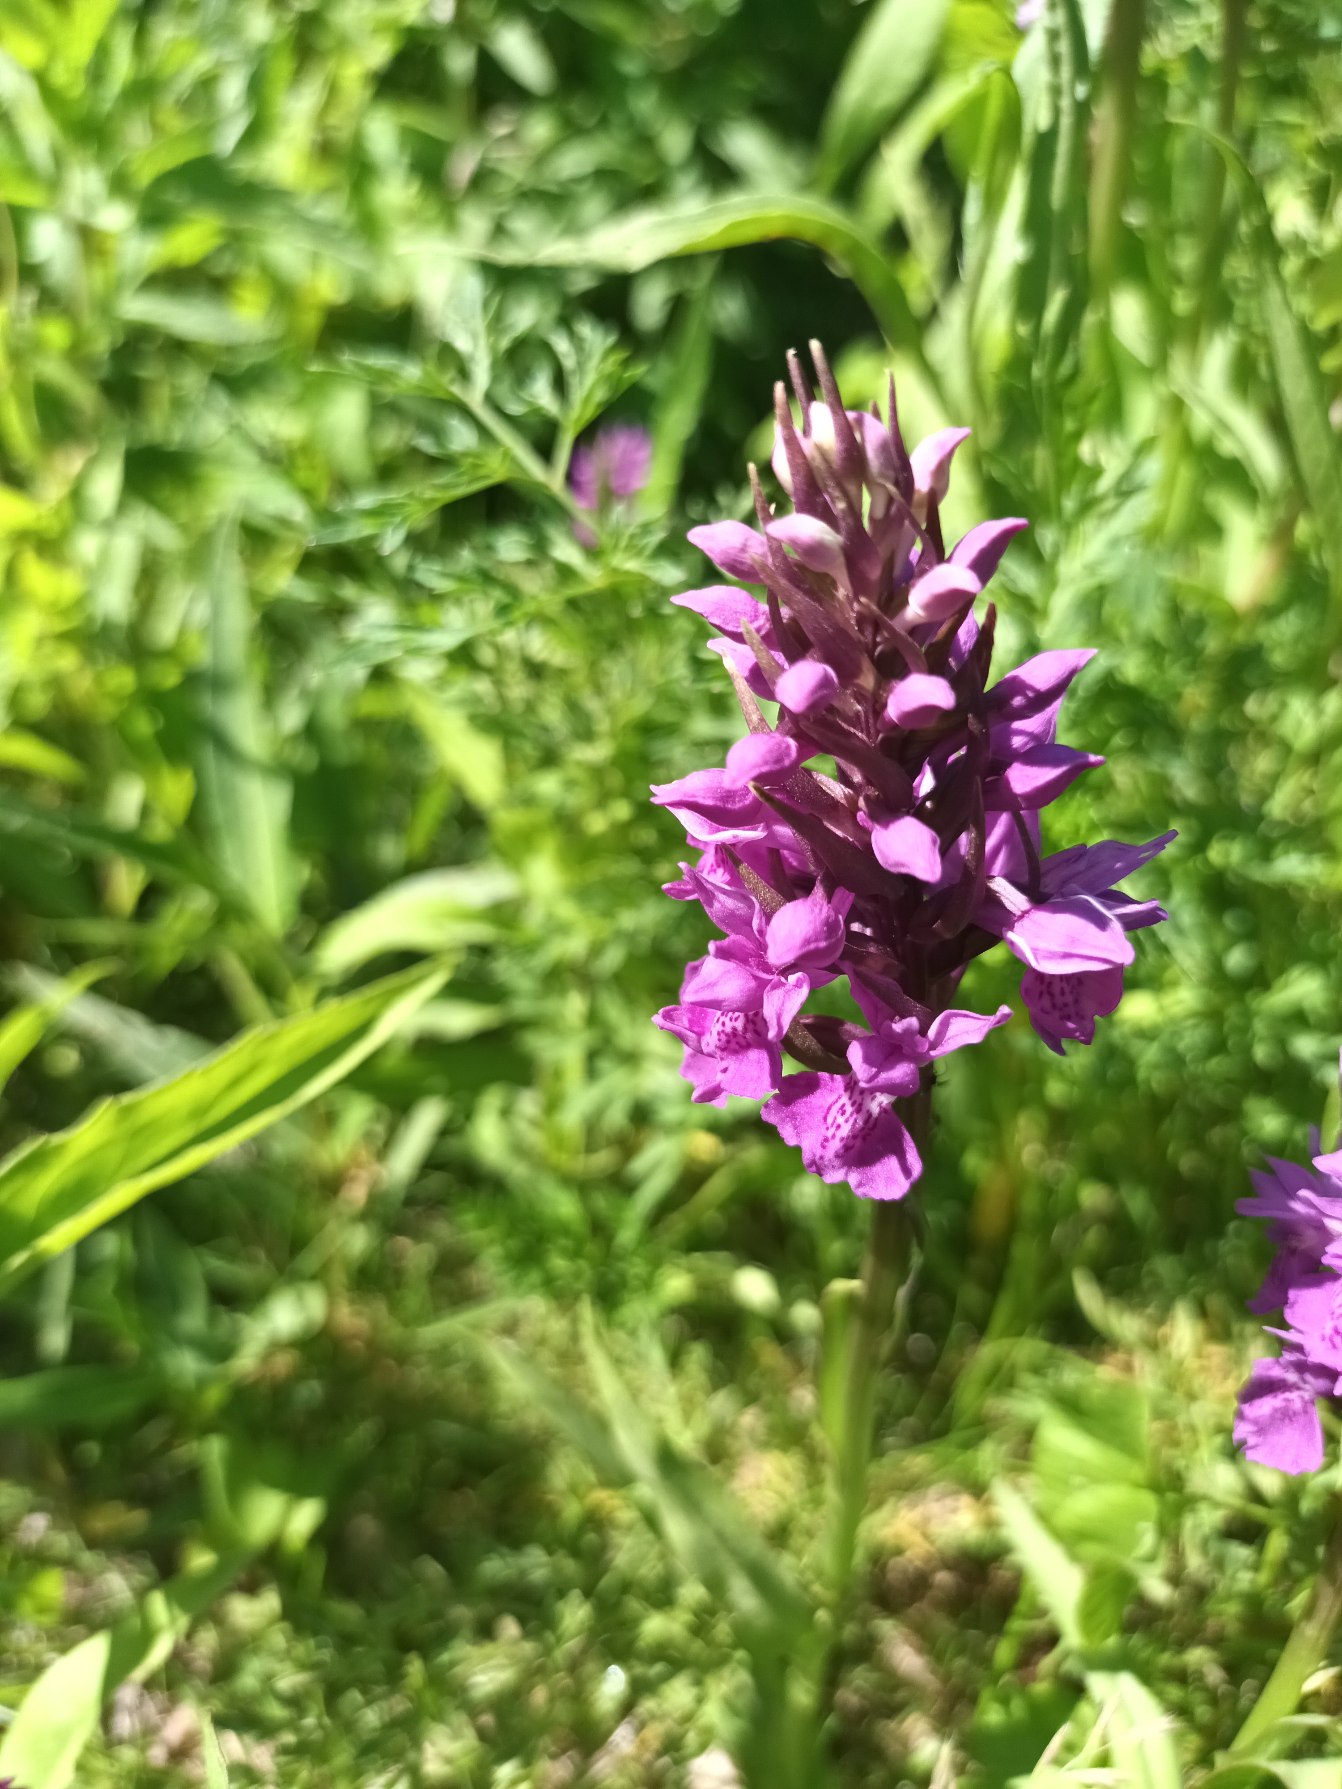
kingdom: Plantae
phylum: Tracheophyta
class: Liliopsida
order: Asparagales
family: Orchidaceae
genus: Dactylorhiza
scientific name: Dactylorhiza majalis
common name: Purpur-gøgeurt
